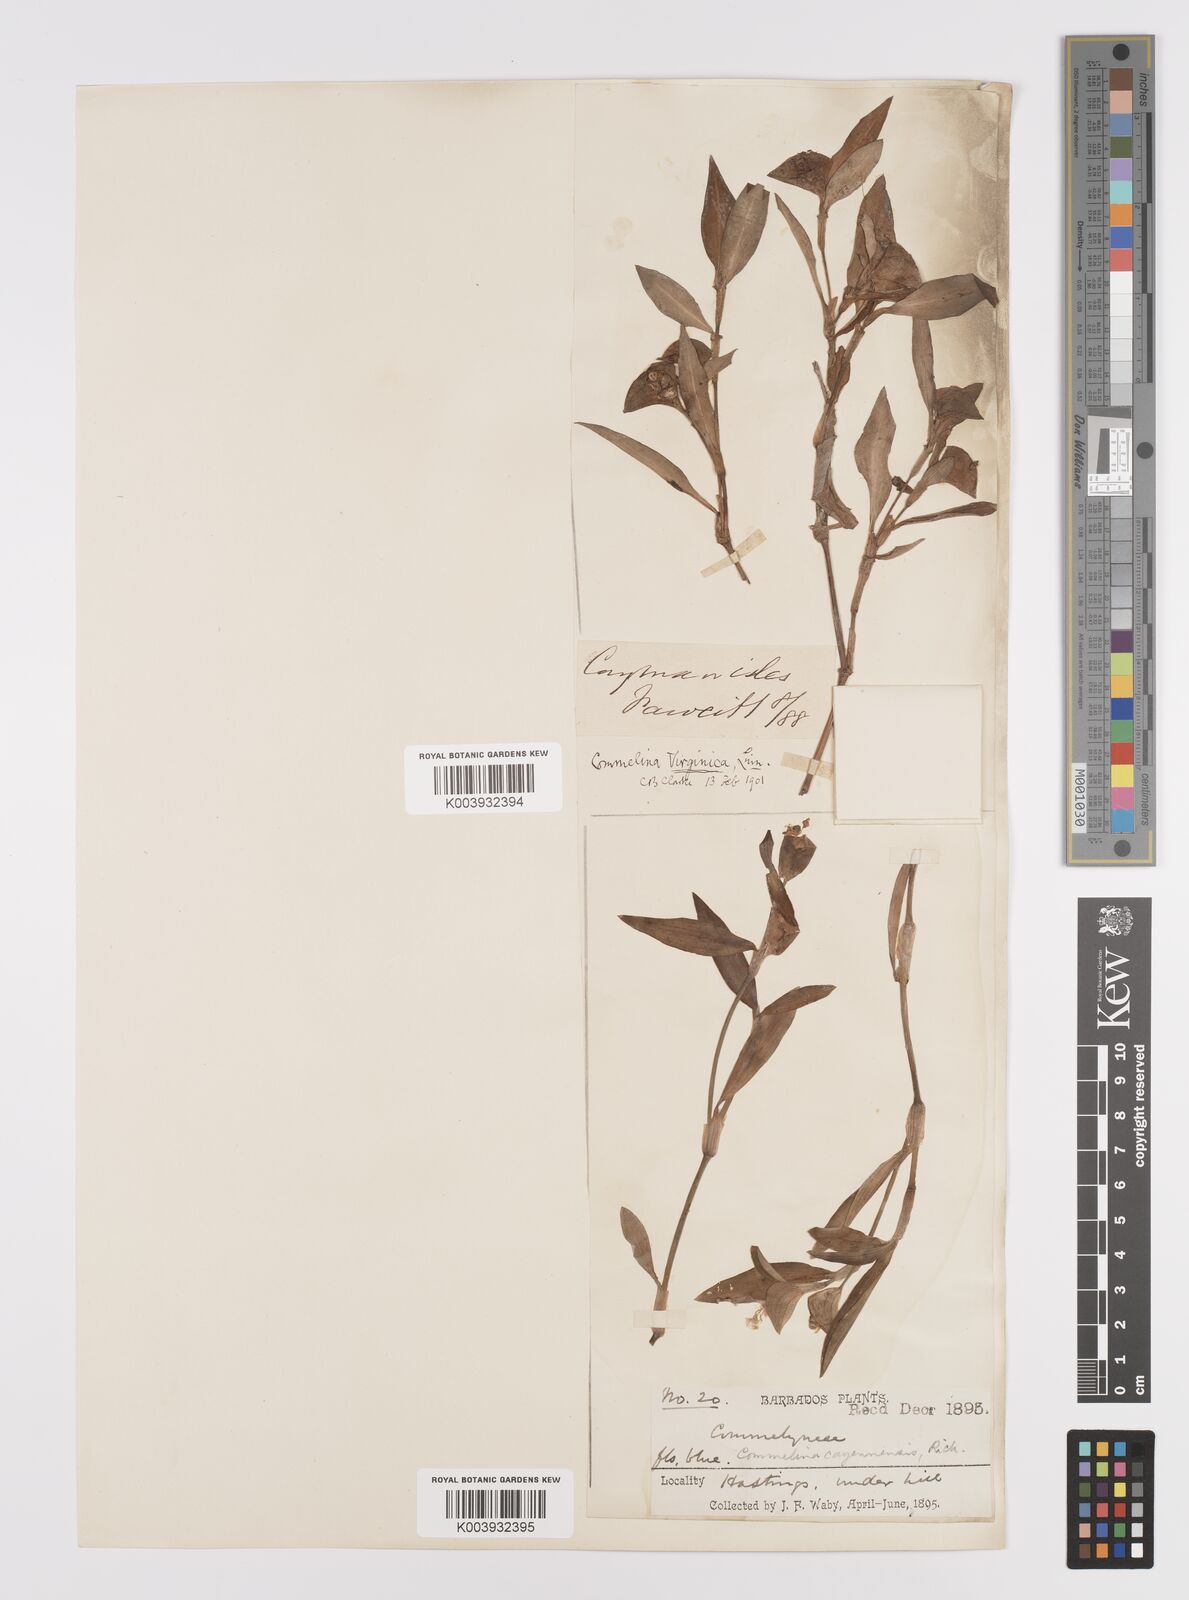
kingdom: Plantae
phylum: Tracheophyta
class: Liliopsida
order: Commelinales
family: Commelinaceae
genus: Commelina
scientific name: Commelina virginica
